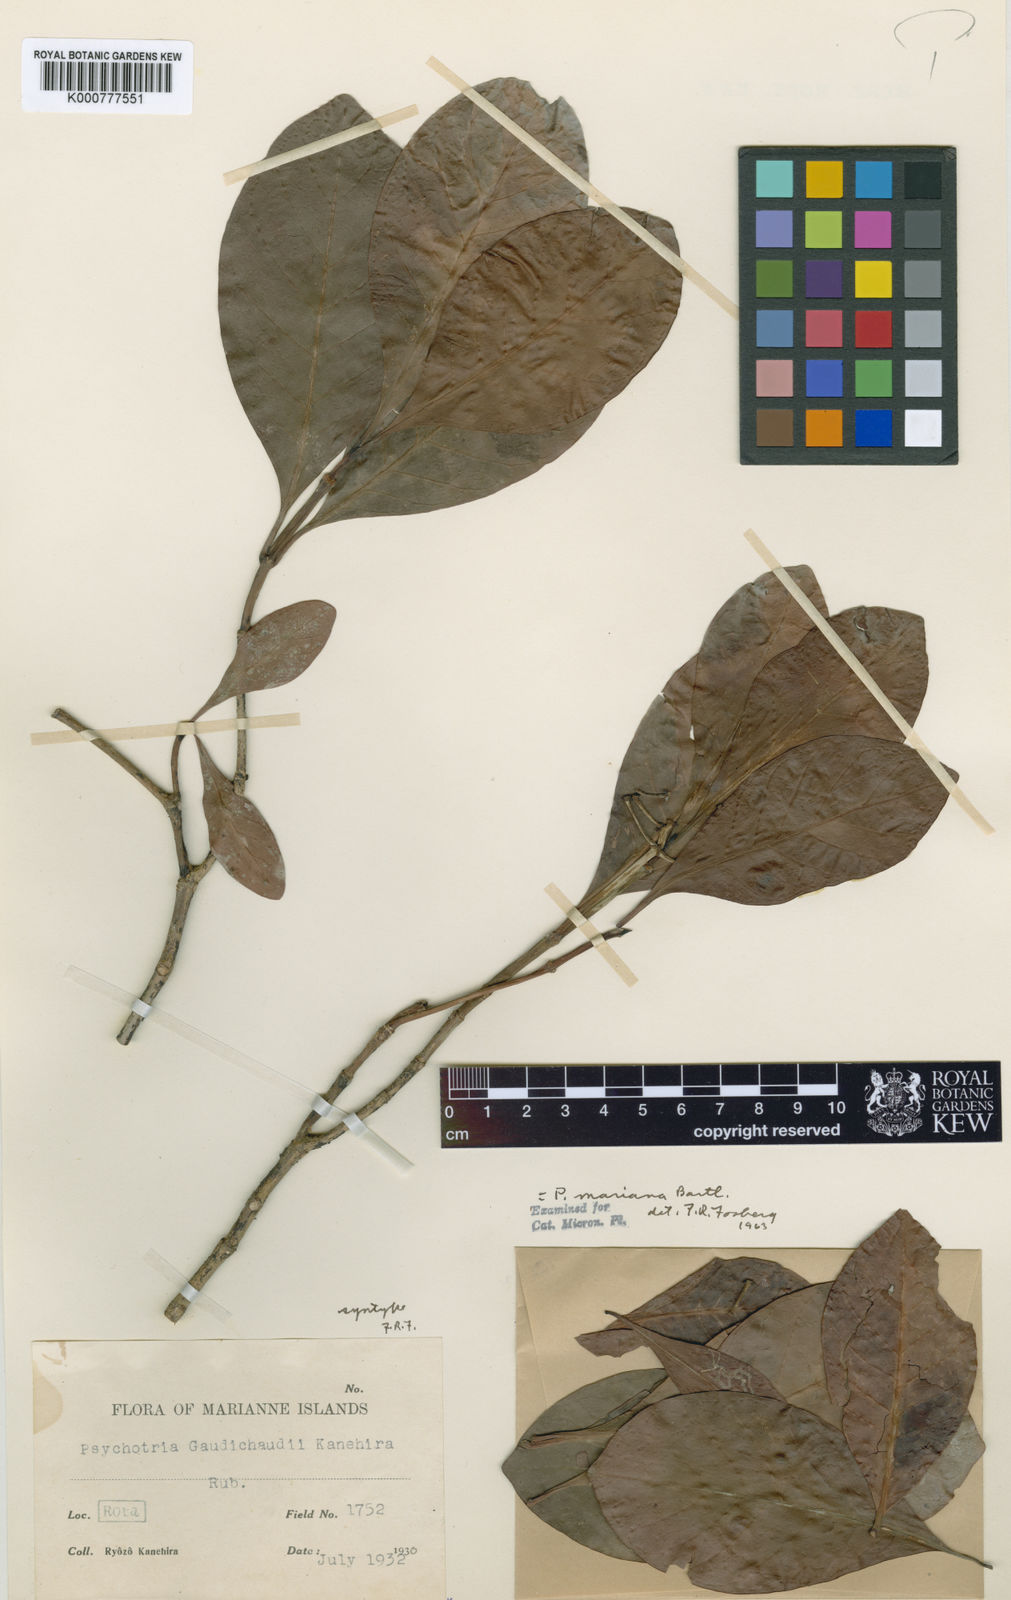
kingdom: Plantae
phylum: Tracheophyta
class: Magnoliopsida
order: Gentianales
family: Rubiaceae
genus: Psychotria
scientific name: Psychotria mariana
